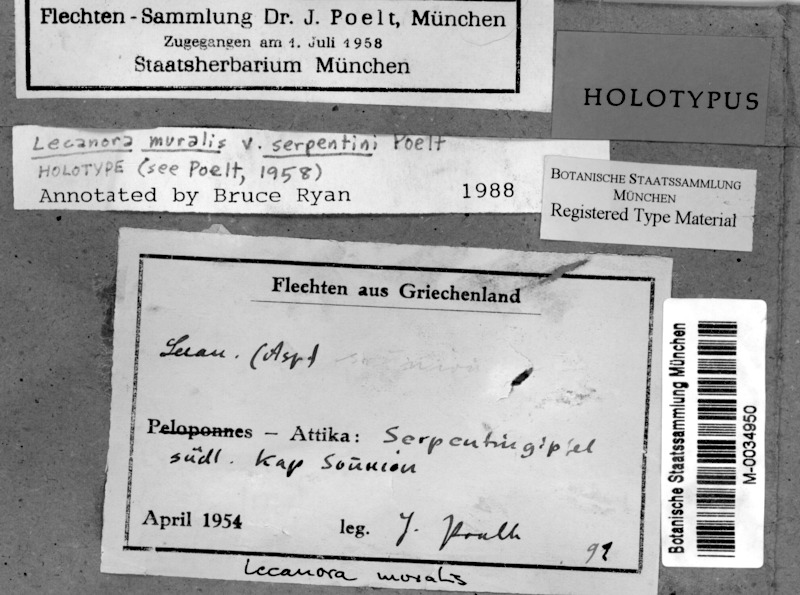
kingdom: Fungi
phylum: Ascomycota
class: Lecanoromycetes
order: Lecanorales
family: Lecanoraceae
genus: Protoparmeliopsis
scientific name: Protoparmeliopsis muralis
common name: Stonewall rim lichen
